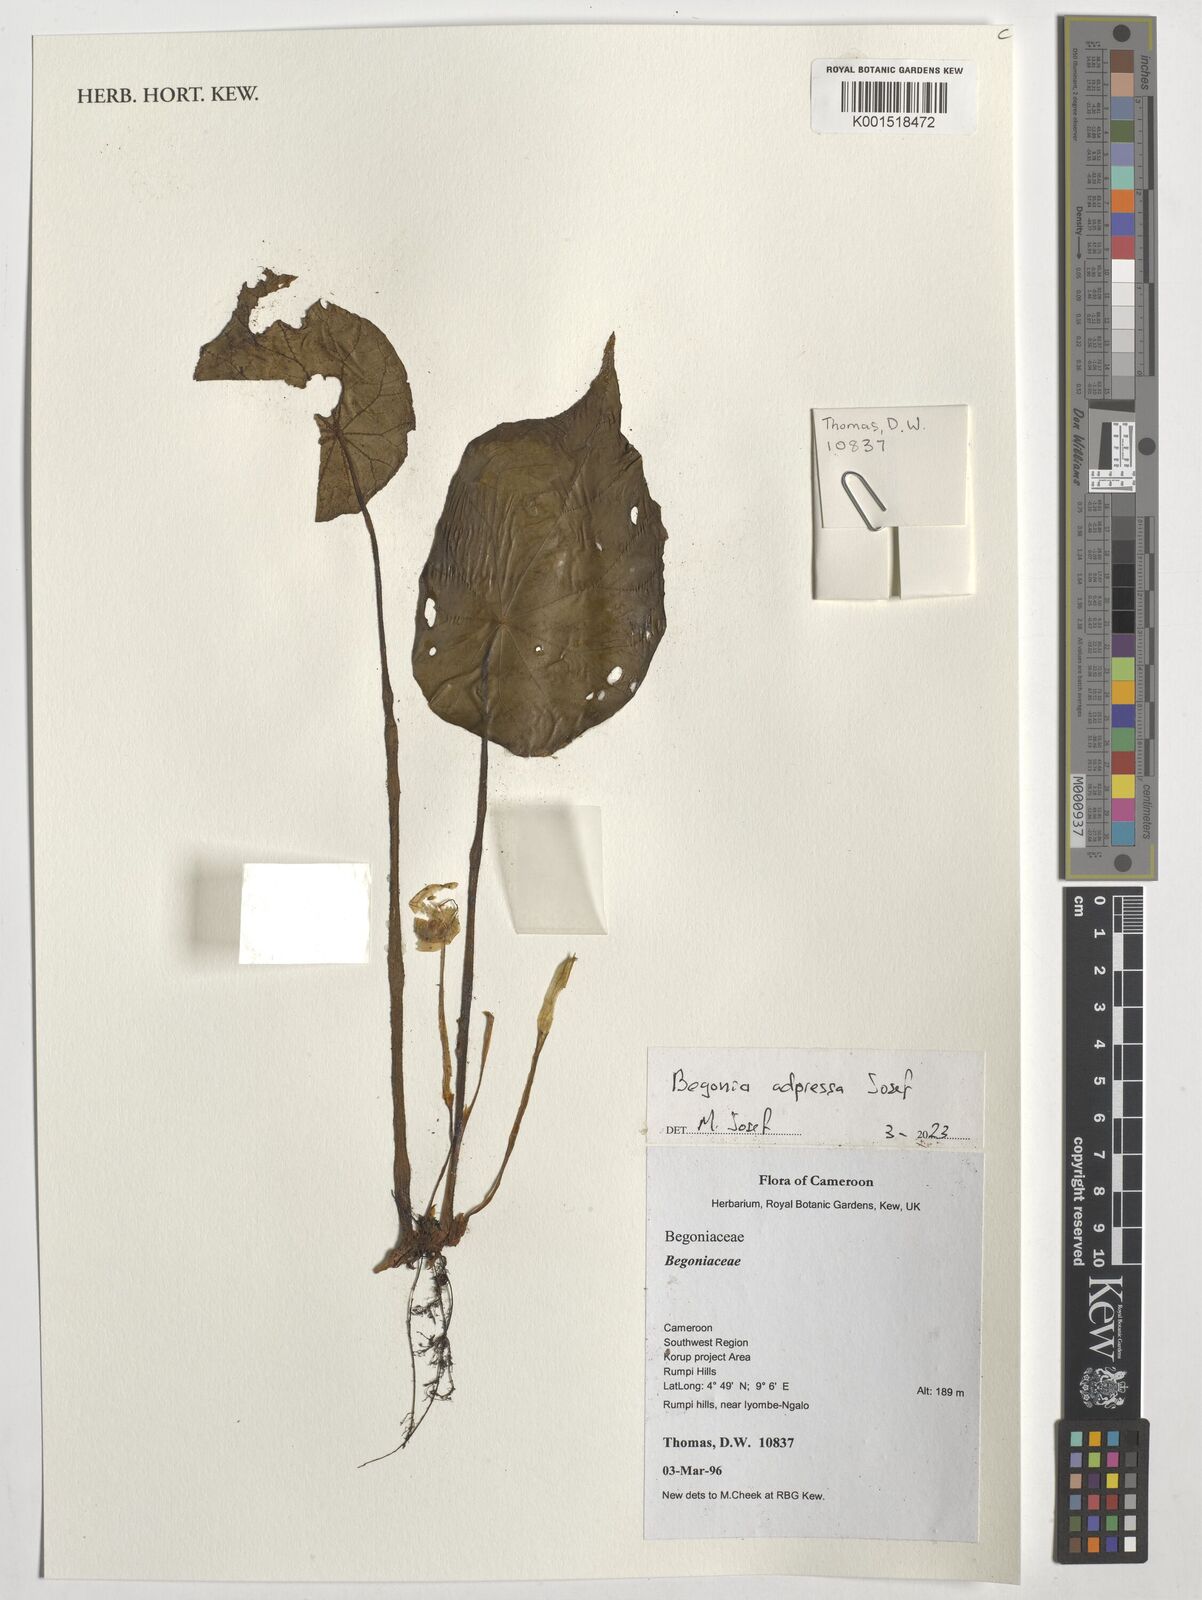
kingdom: Plantae
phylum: Tracheophyta
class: Magnoliopsida
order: Cucurbitales
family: Begoniaceae
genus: Begonia
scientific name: Begonia adpressa
